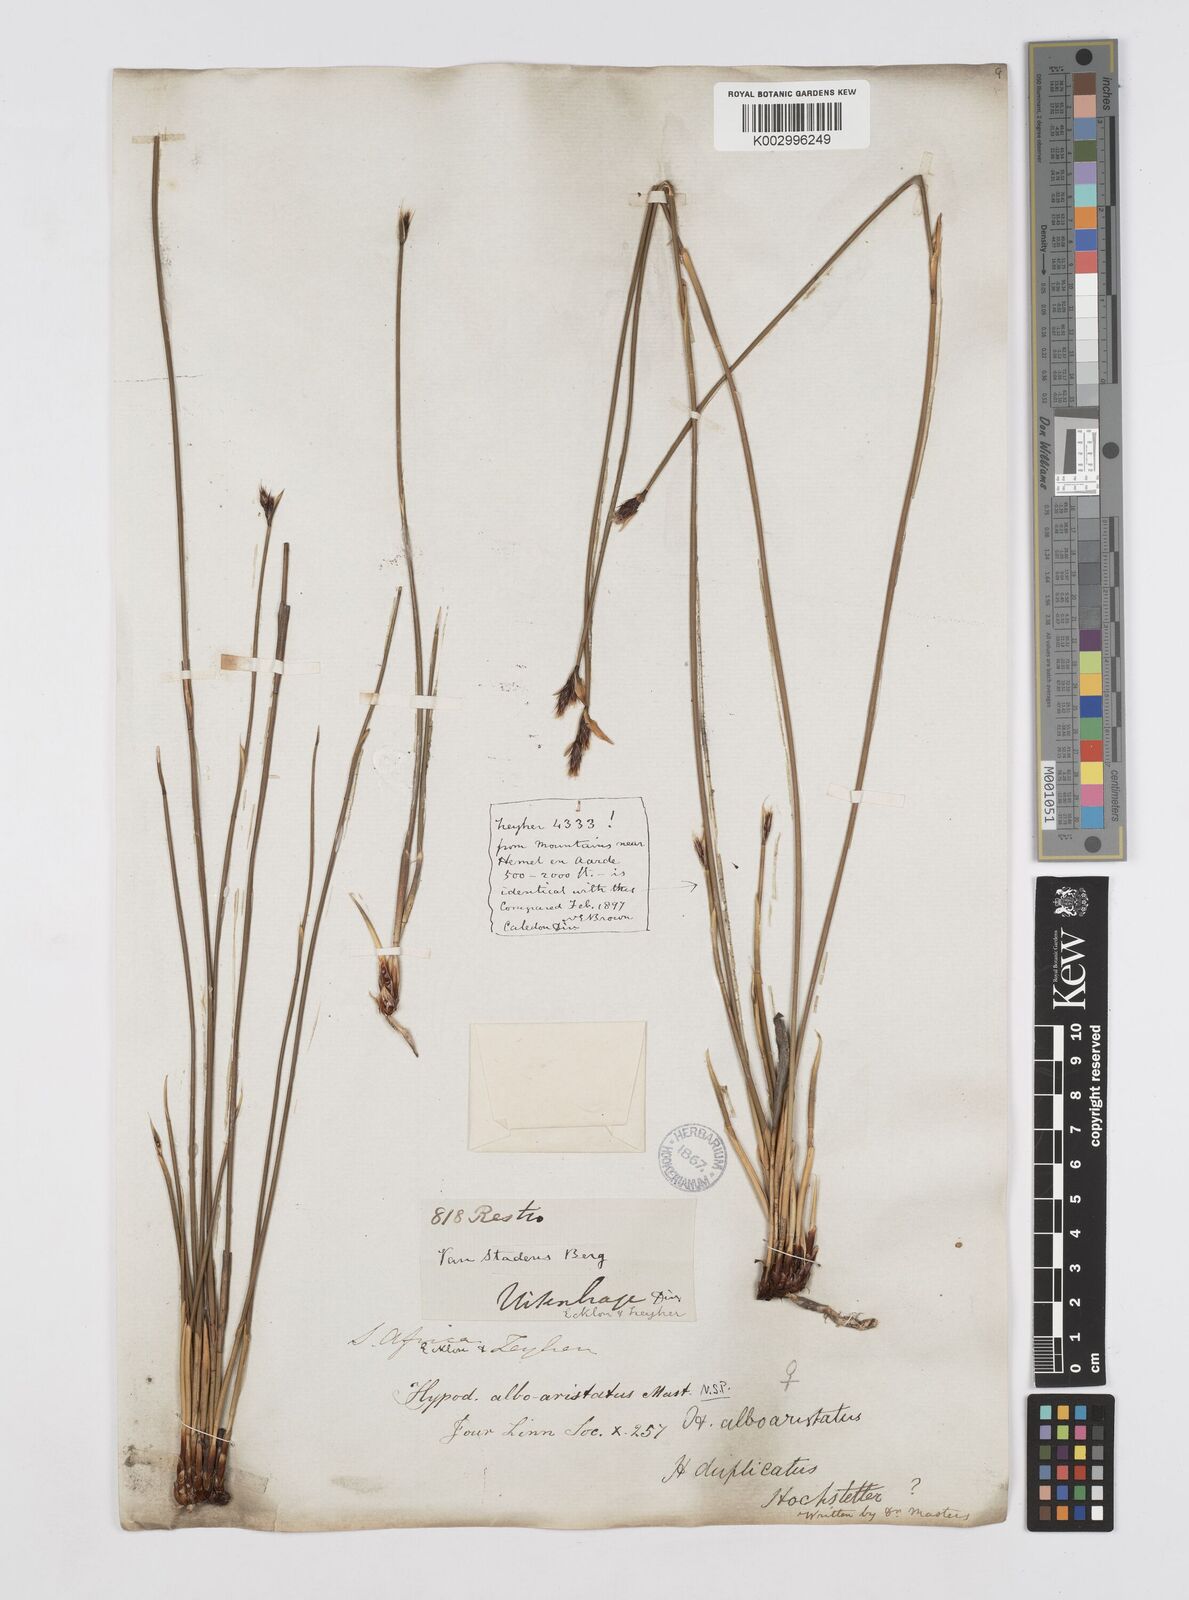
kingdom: Plantae
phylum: Tracheophyta
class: Liliopsida
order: Poales
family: Restionaceae
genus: Hypodiscus
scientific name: Hypodiscus alboaristatus
